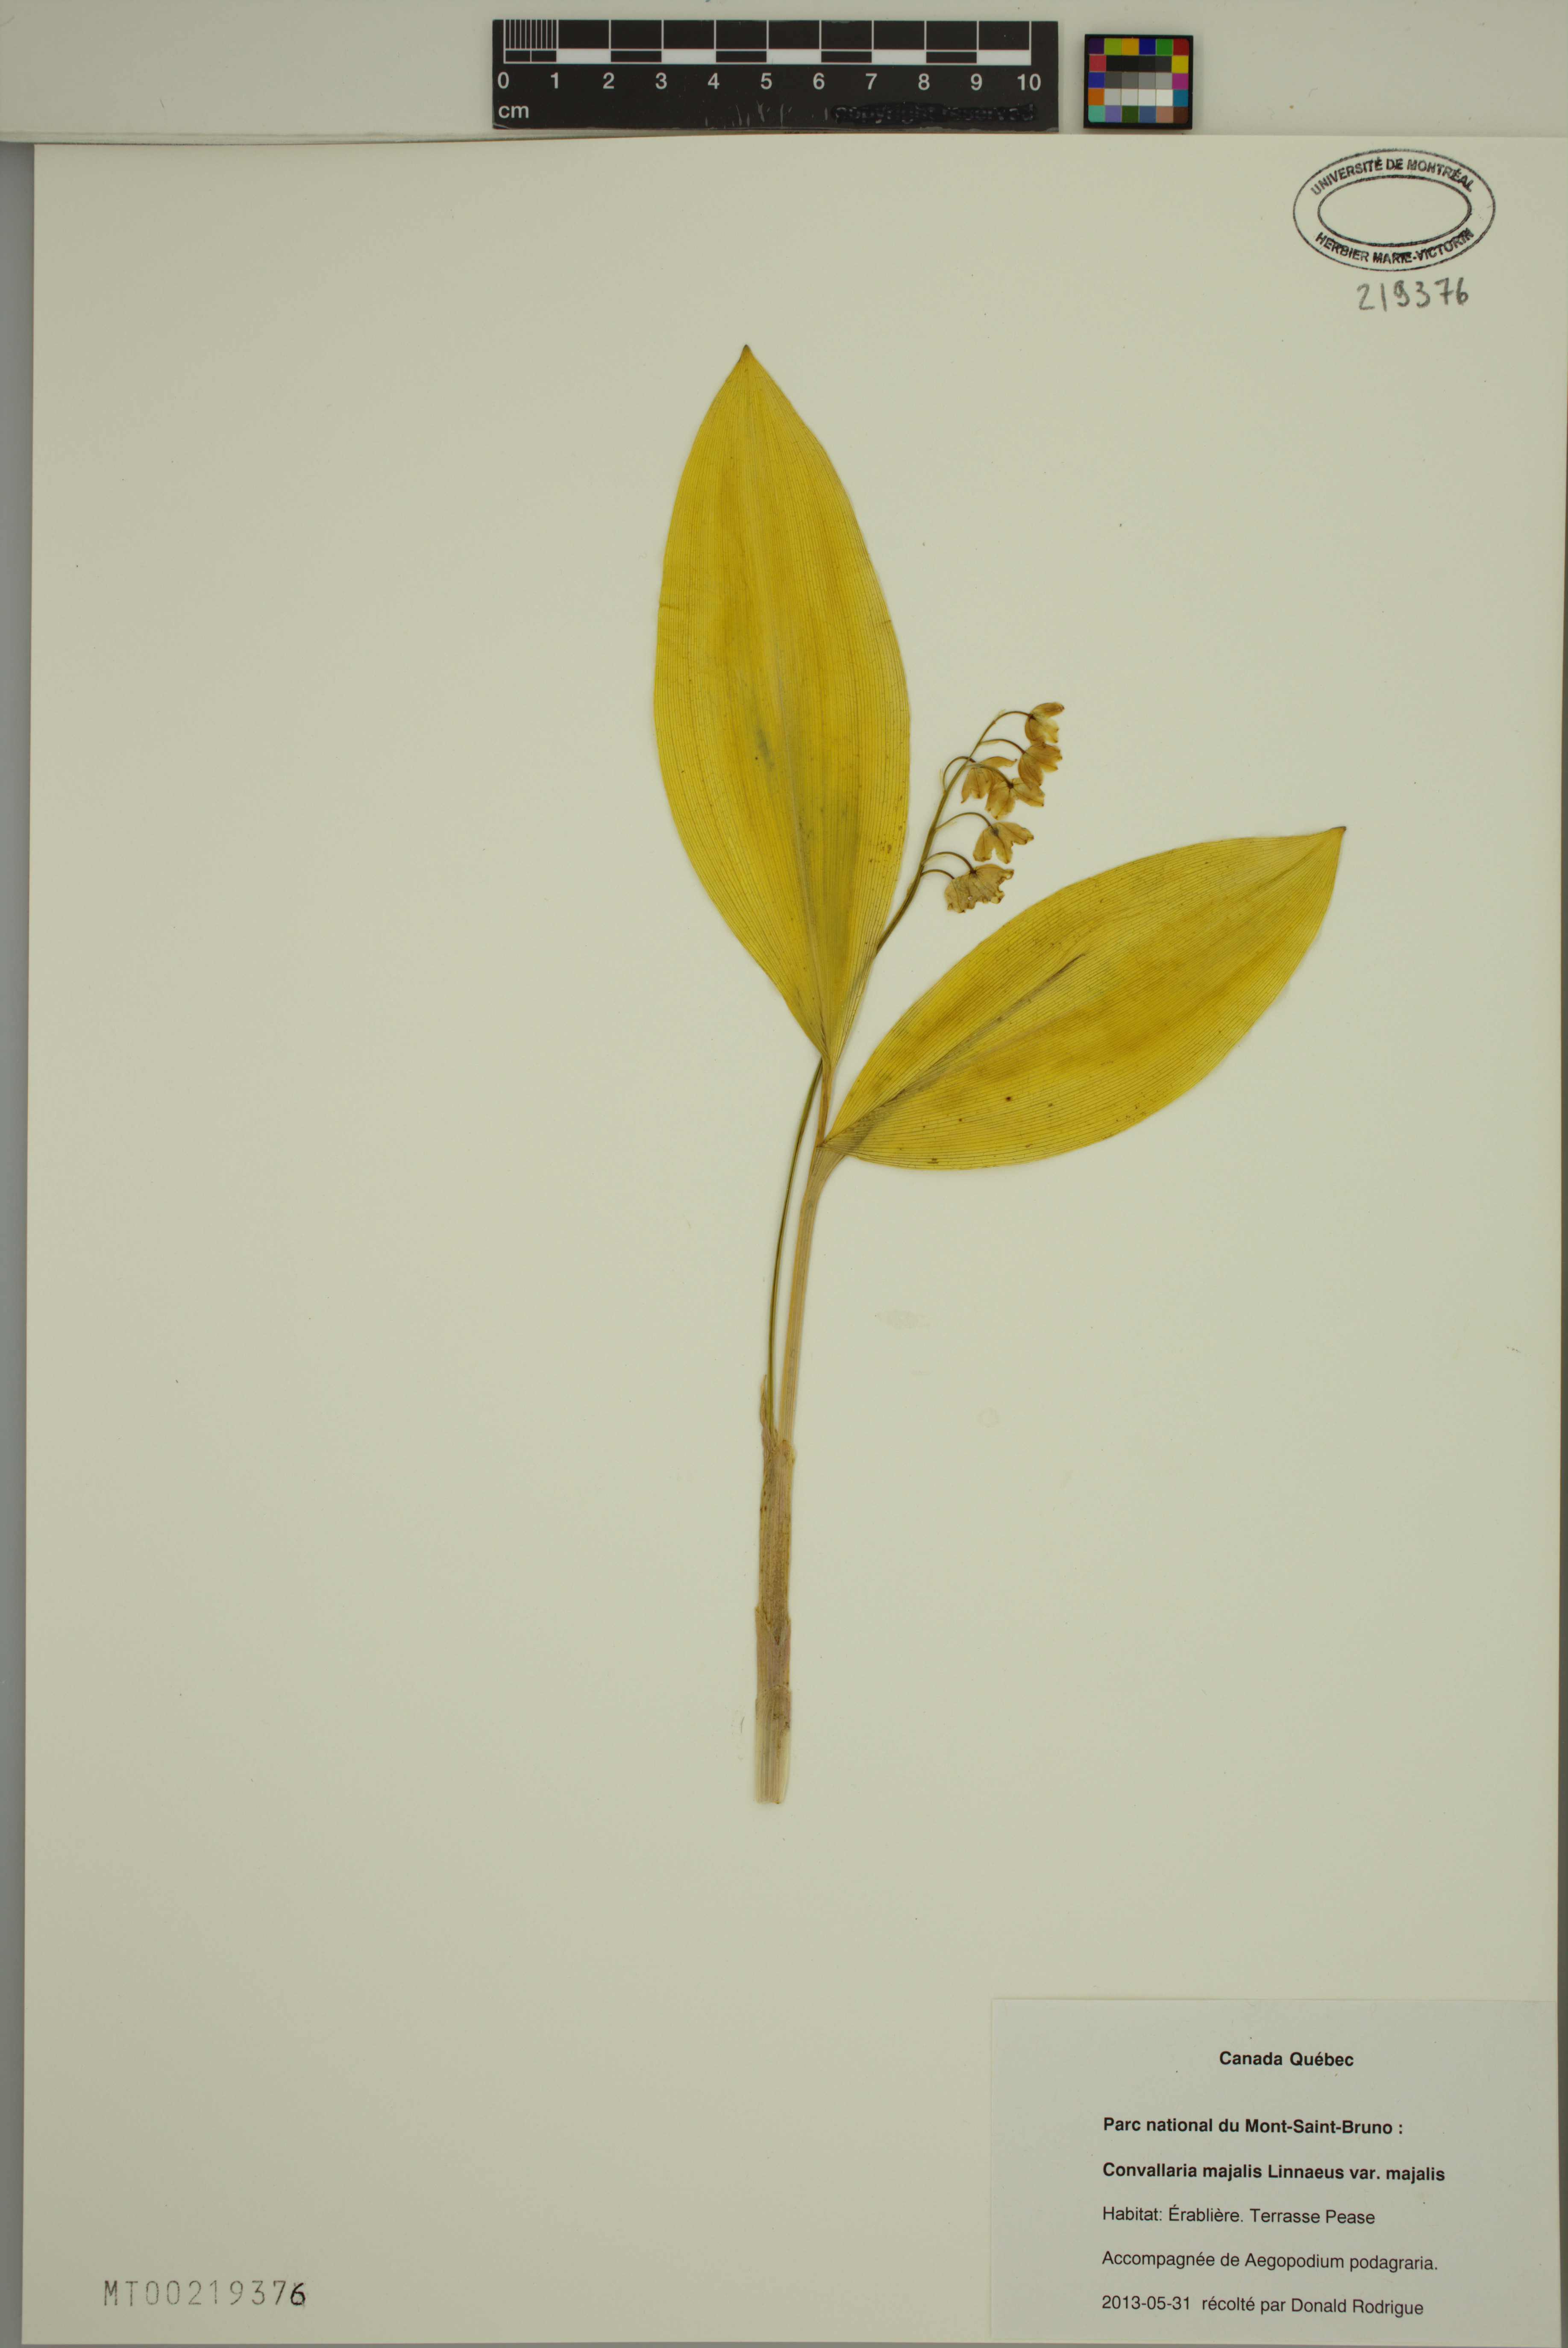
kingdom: Plantae
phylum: Tracheophyta
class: Liliopsida
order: Asparagales
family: Asparagaceae
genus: Convallaria
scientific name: Convallaria majalis
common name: Lily-of-the-valley
